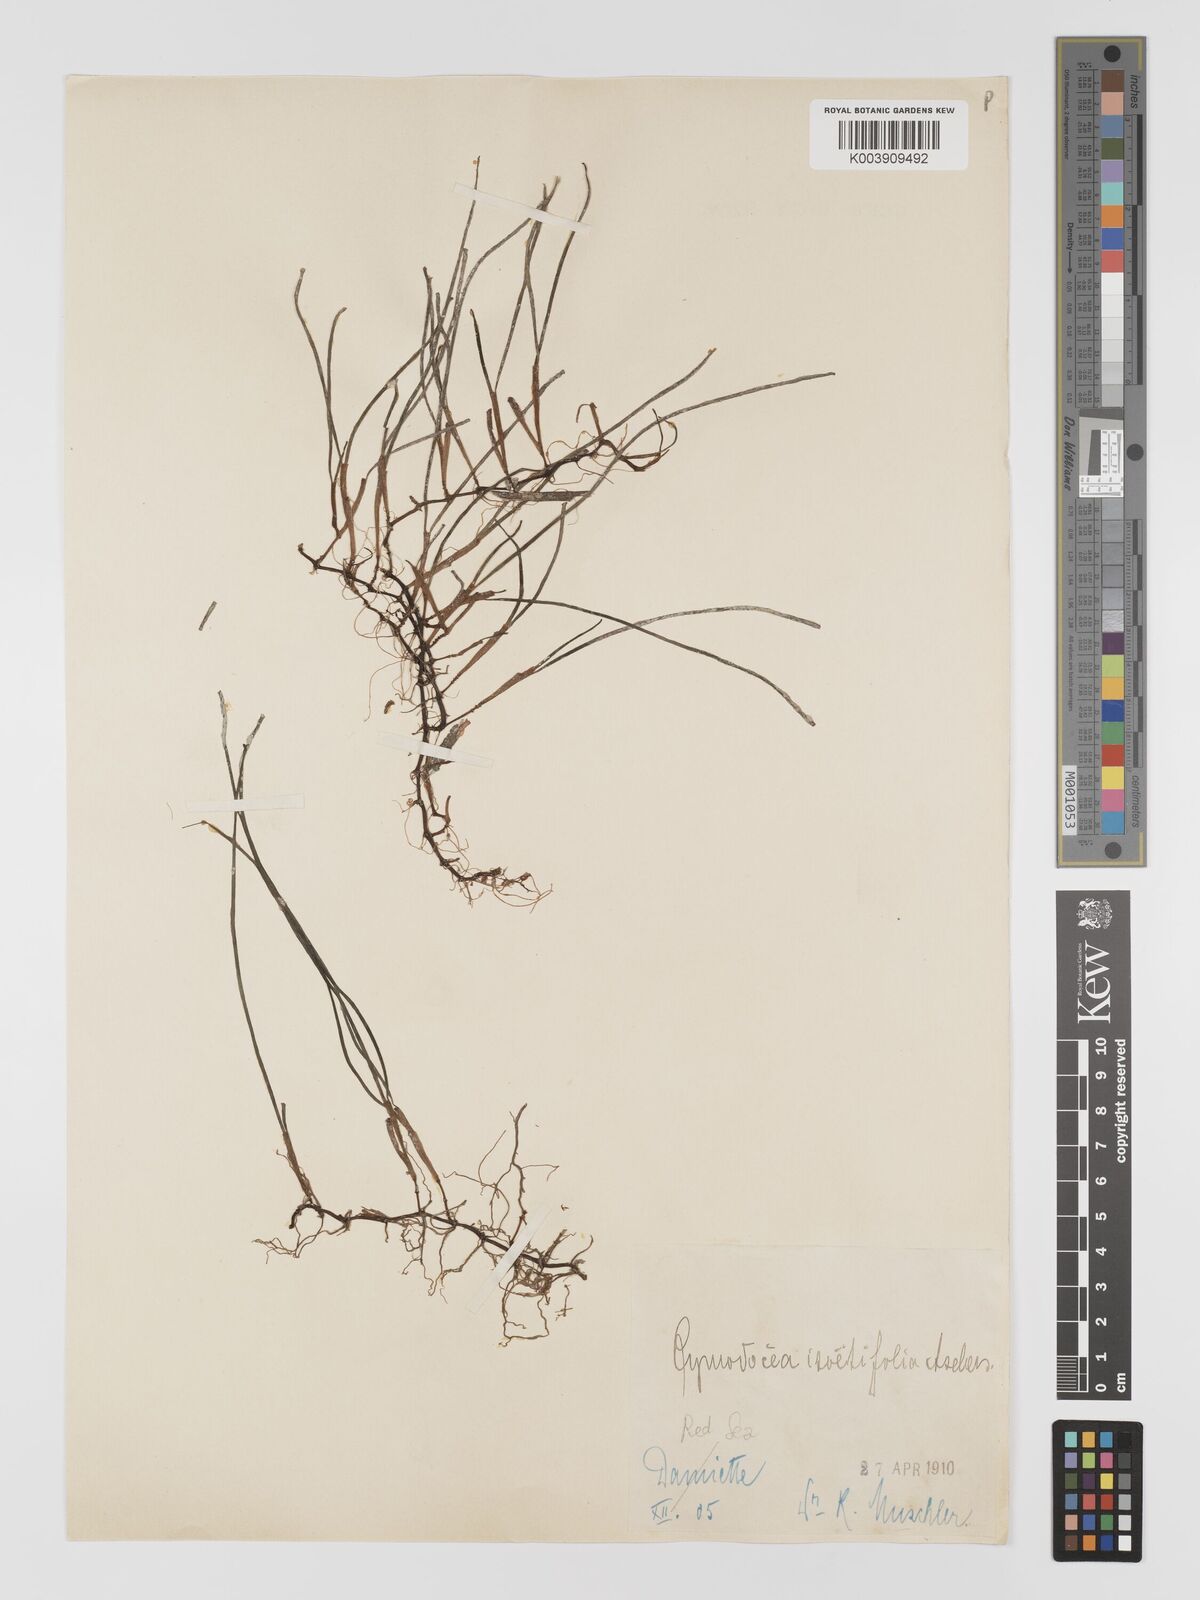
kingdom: Plantae
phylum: Tracheophyta
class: Liliopsida
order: Alismatales
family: Cymodoceaceae
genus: Syringodium
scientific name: Syringodium isoetifolium
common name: Species code: si
